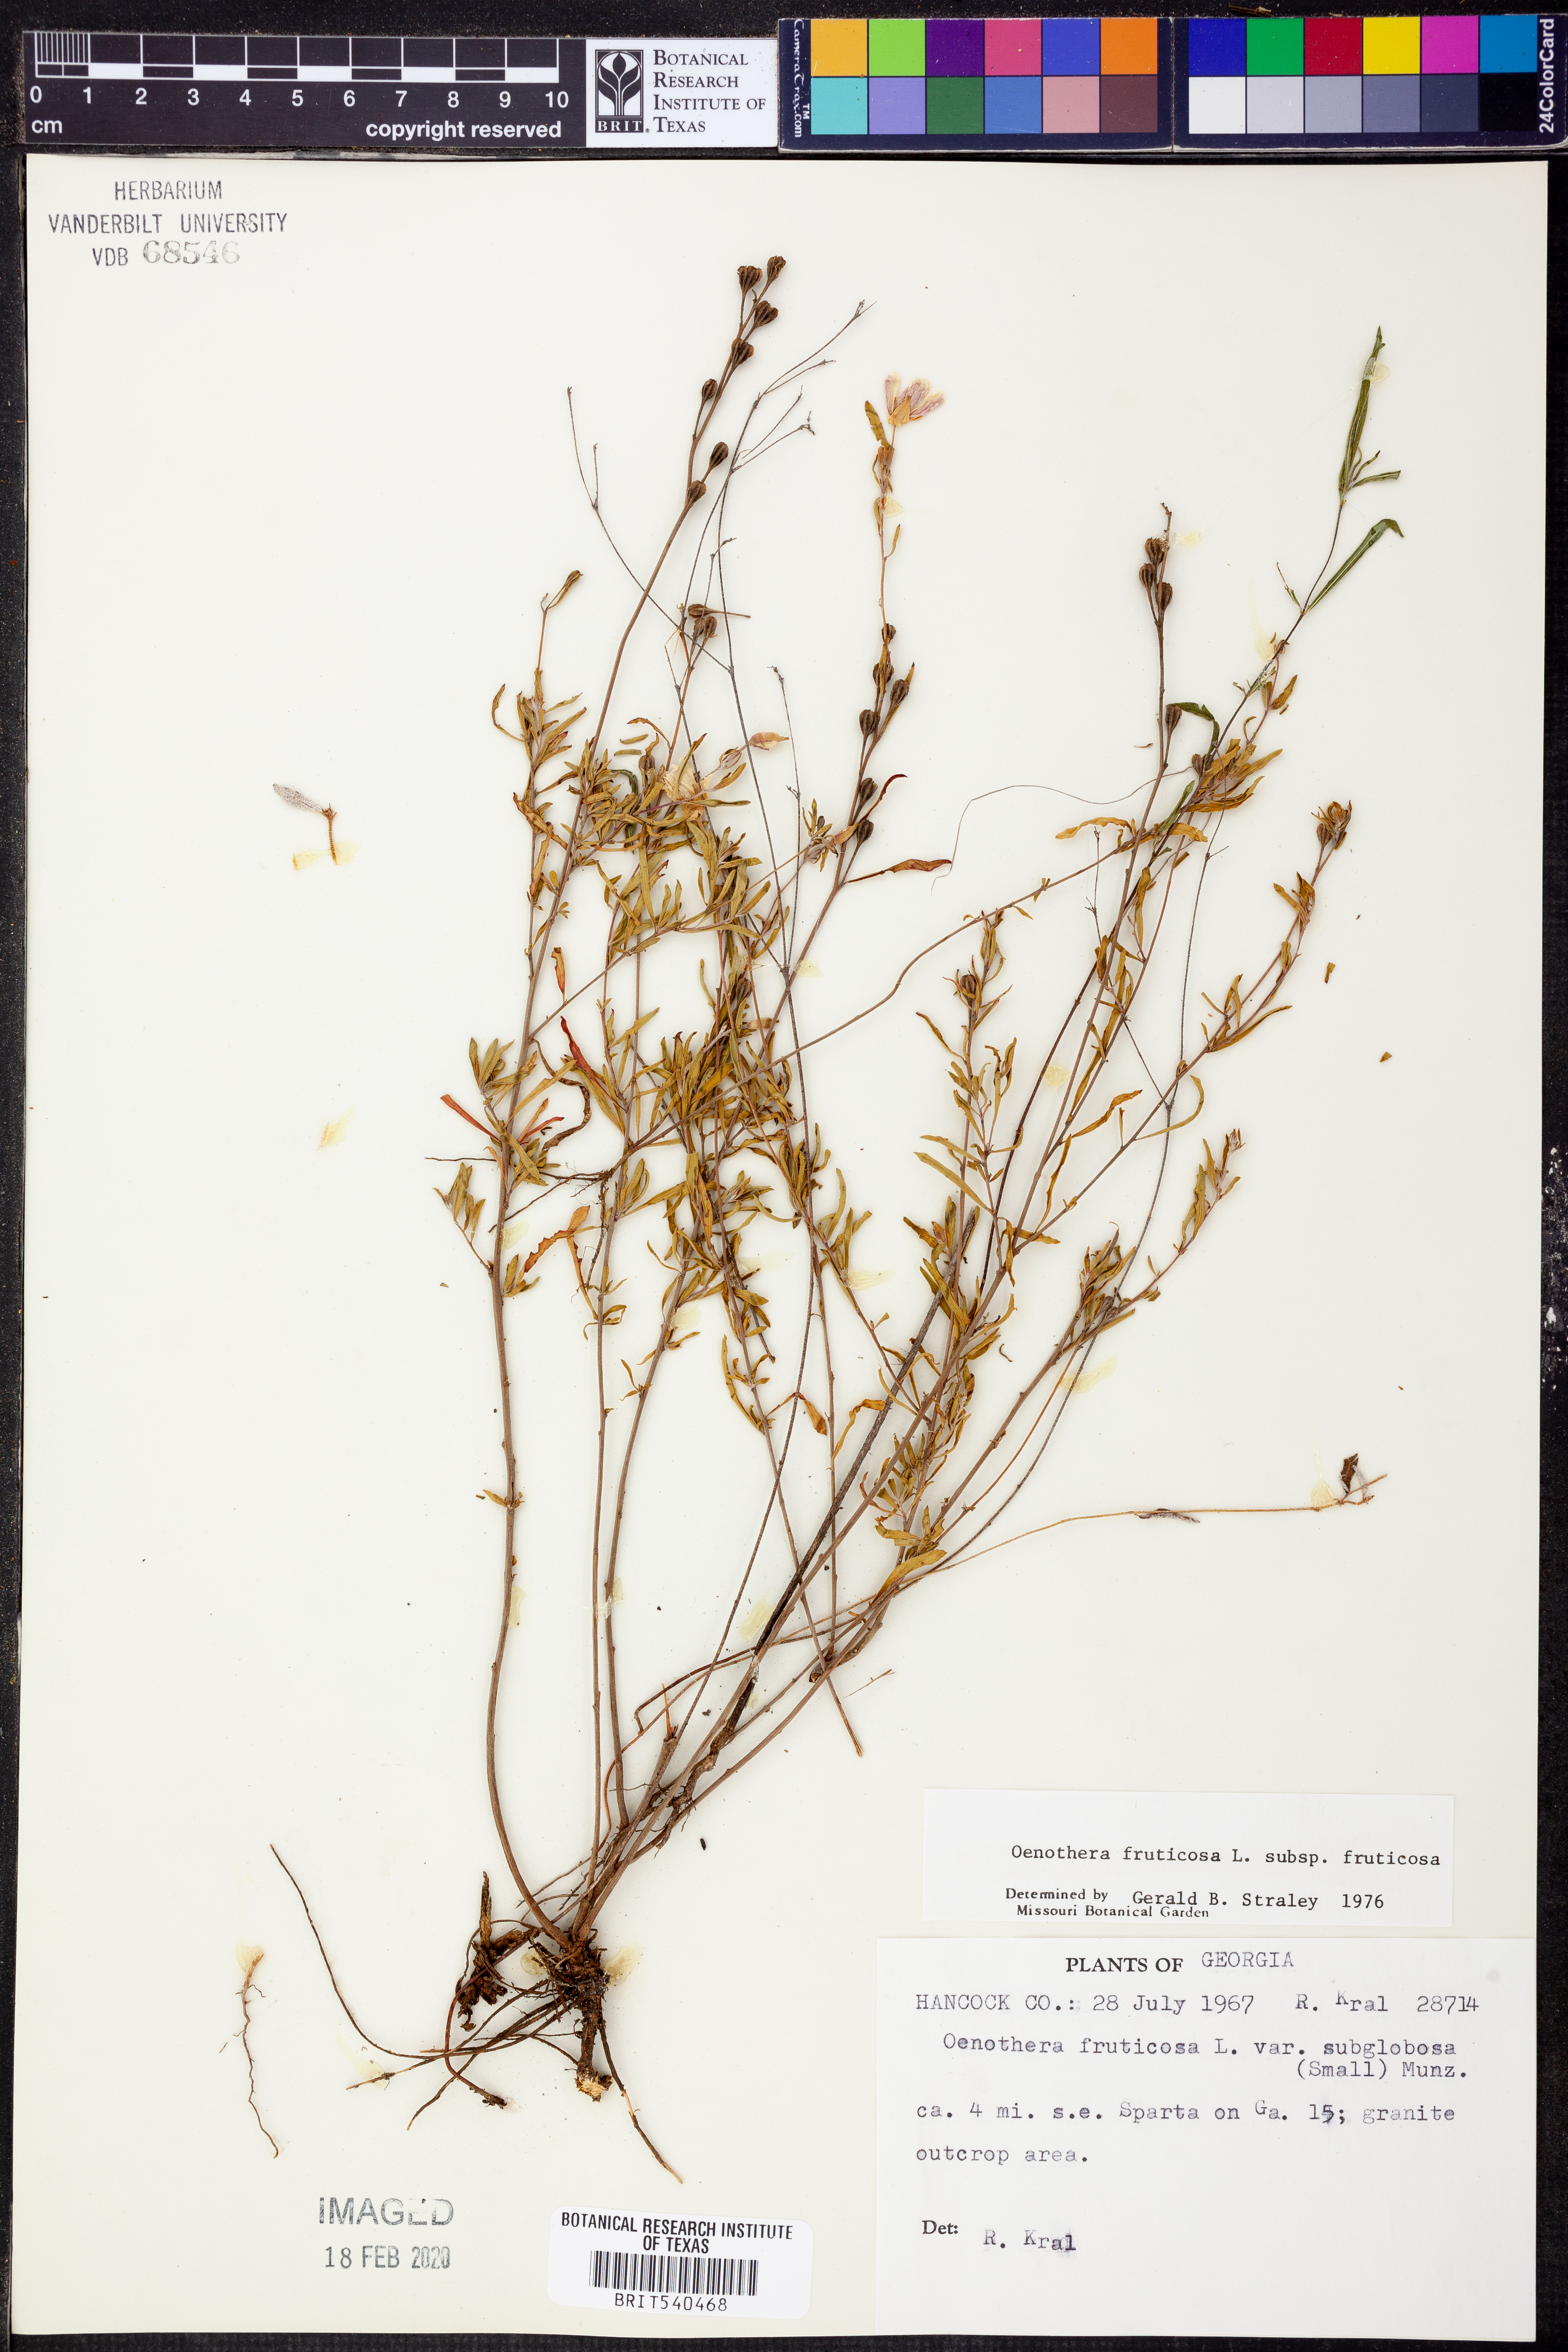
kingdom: Plantae
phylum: Tracheophyta
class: Magnoliopsida
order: Myrtales
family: Onagraceae
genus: Oenothera
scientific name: Oenothera fruticosa
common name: Southern sundrops
